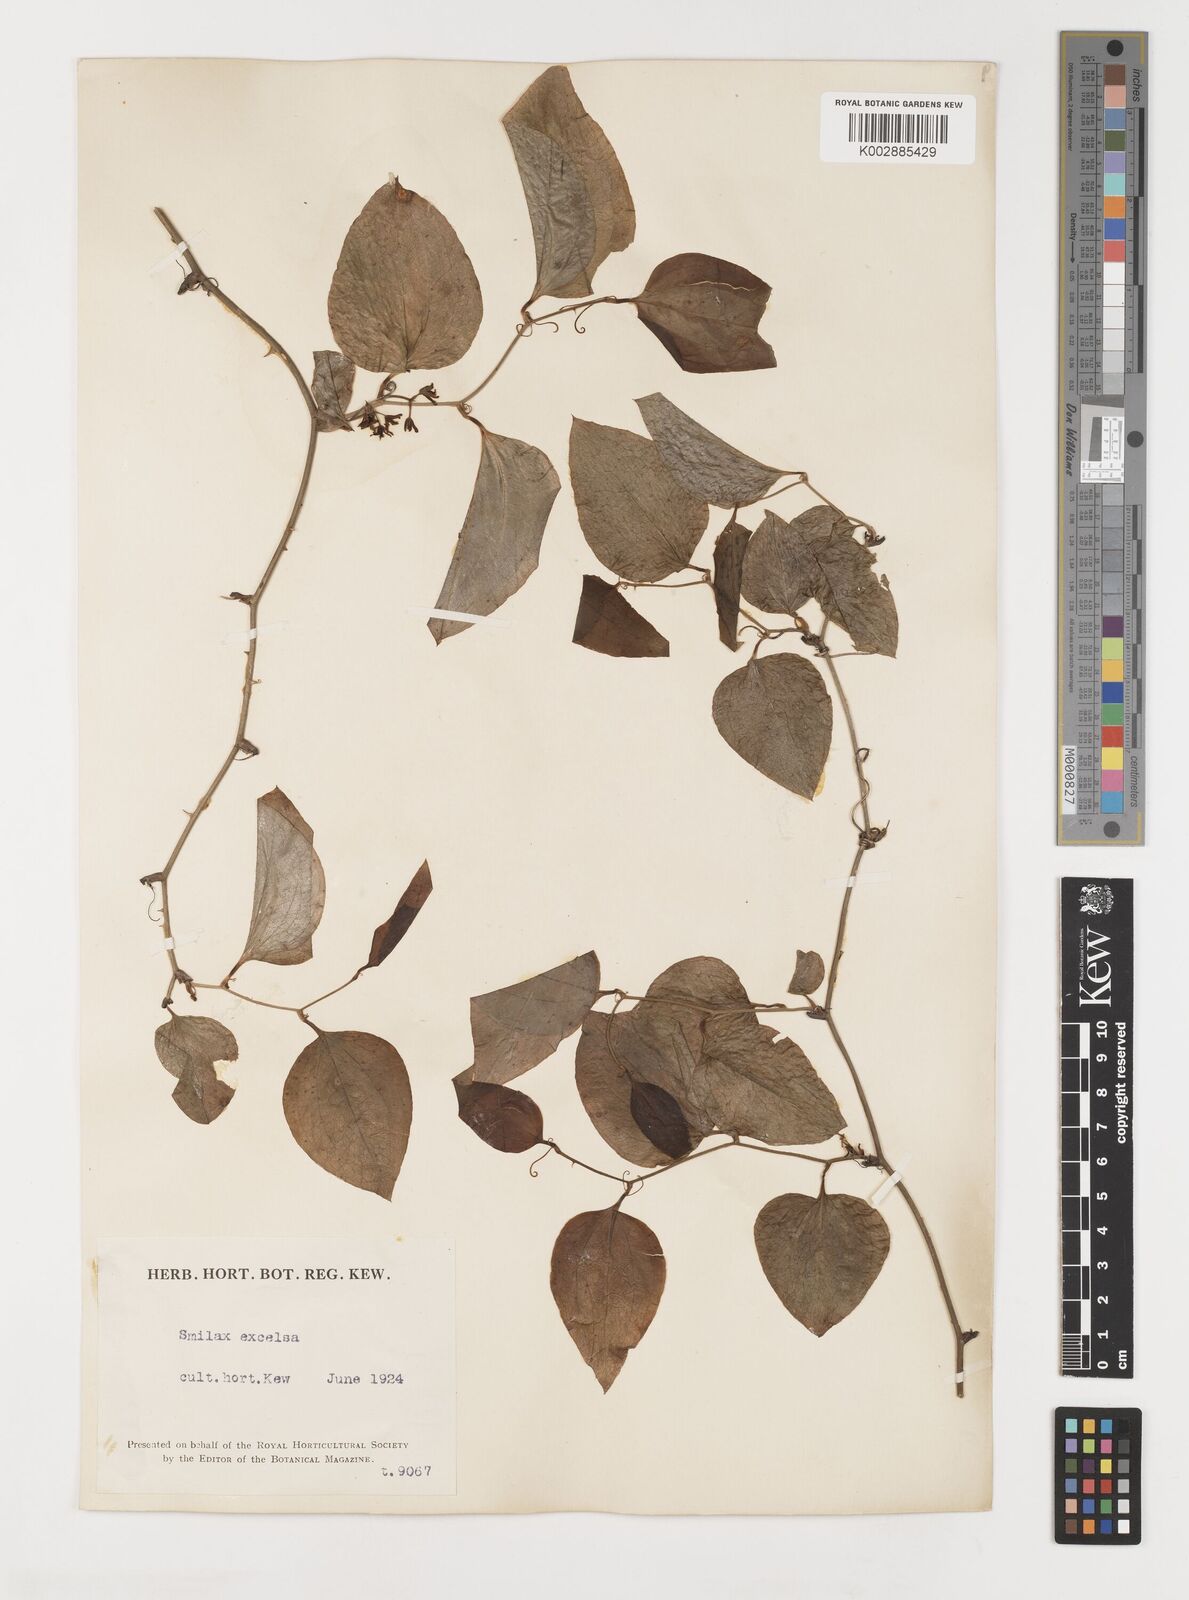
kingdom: Plantae
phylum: Tracheophyta
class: Liliopsida
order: Liliales
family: Smilacaceae
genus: Smilax
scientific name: Smilax excelsa
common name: Larger smilax
